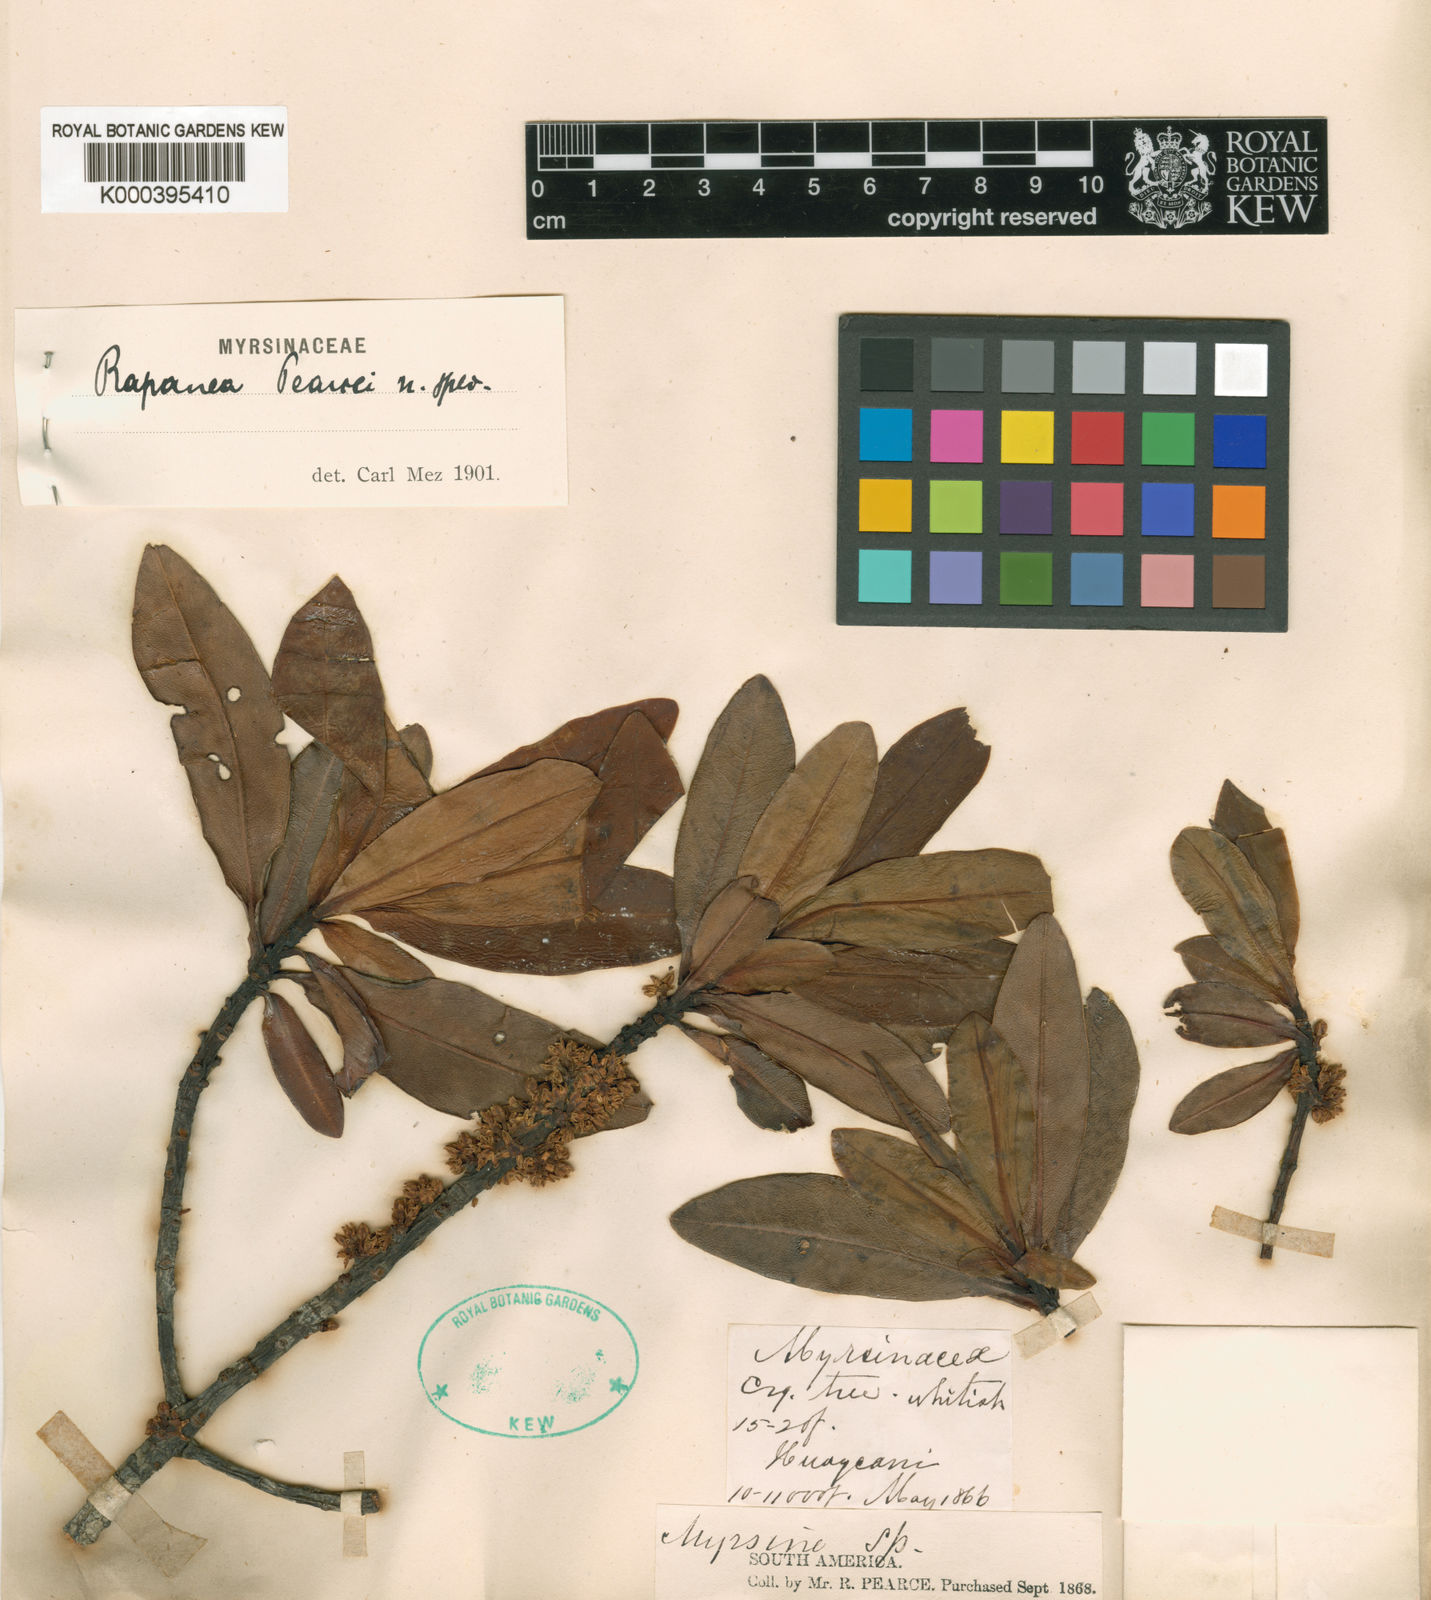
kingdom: Plantae
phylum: Tracheophyta
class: Magnoliopsida
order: Ericales
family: Primulaceae
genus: Myrsine
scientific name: Myrsine pearcei
